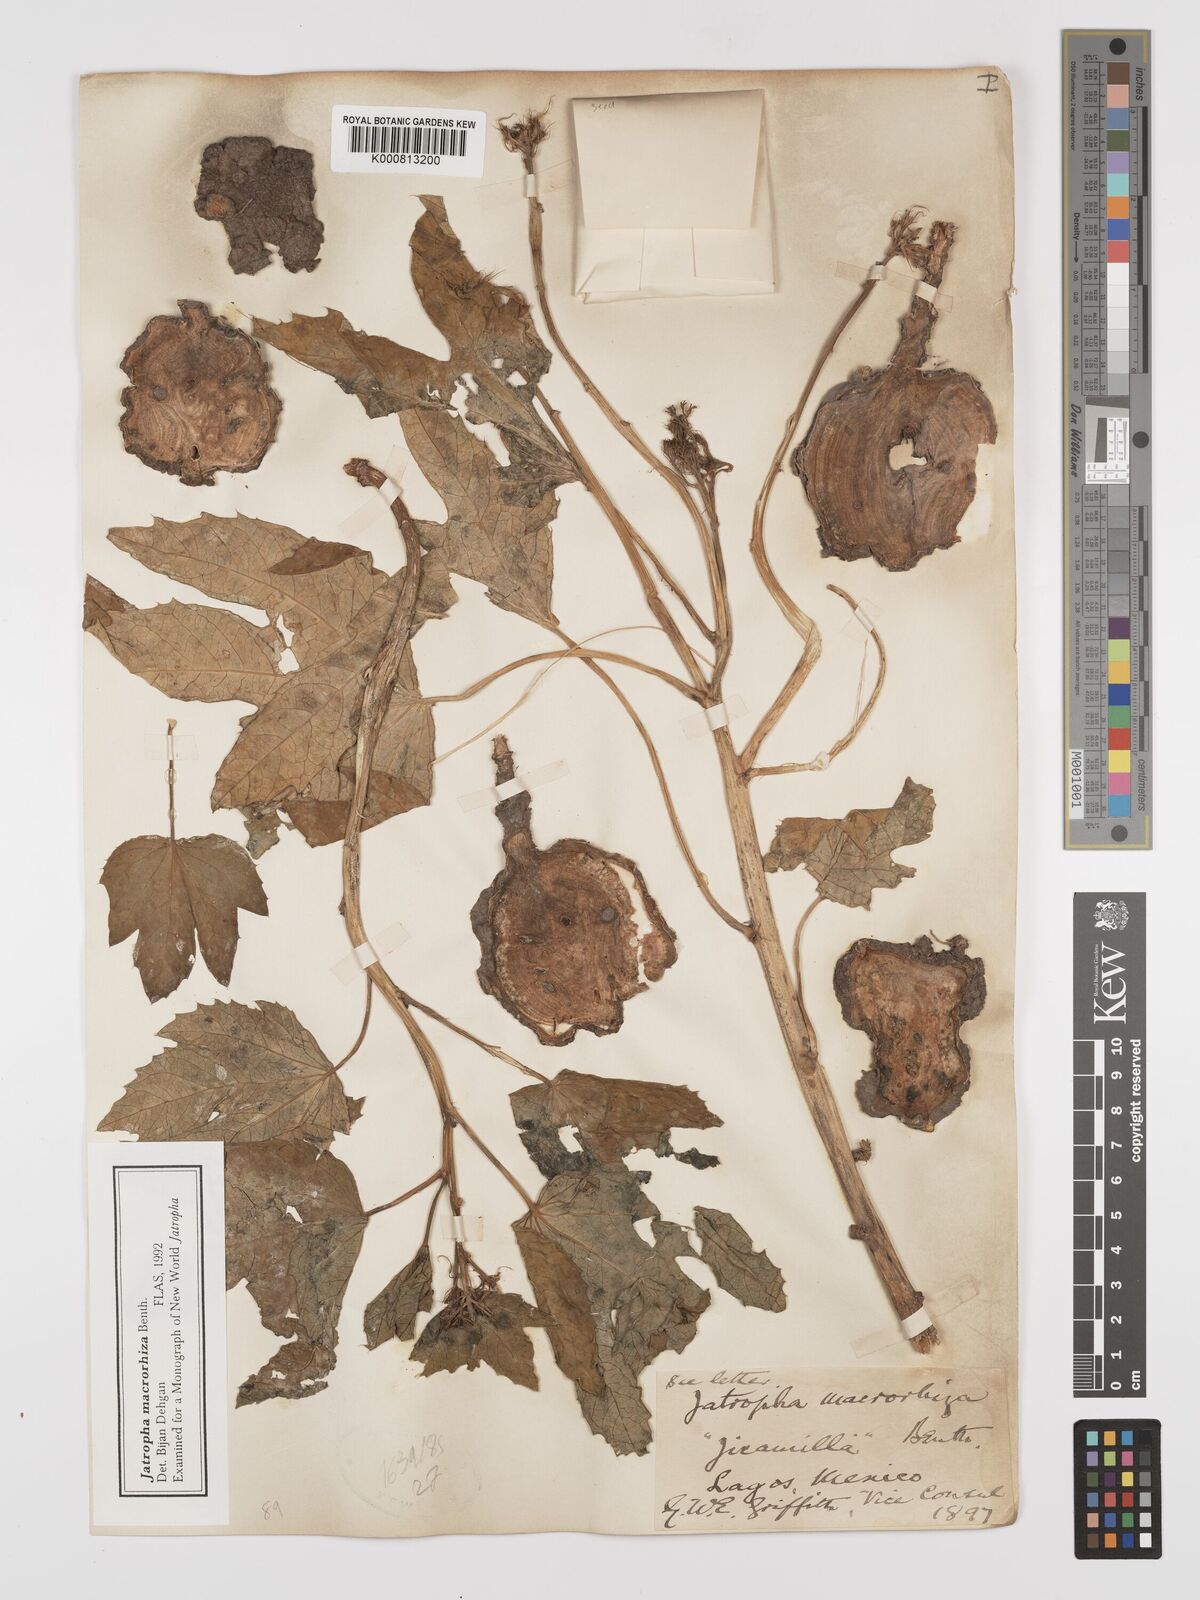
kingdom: Plantae
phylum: Tracheophyta
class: Magnoliopsida
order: Malpighiales
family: Euphorbiaceae
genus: Jatropha
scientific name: Jatropha macrorhiza
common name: Ragged nettlespurge
